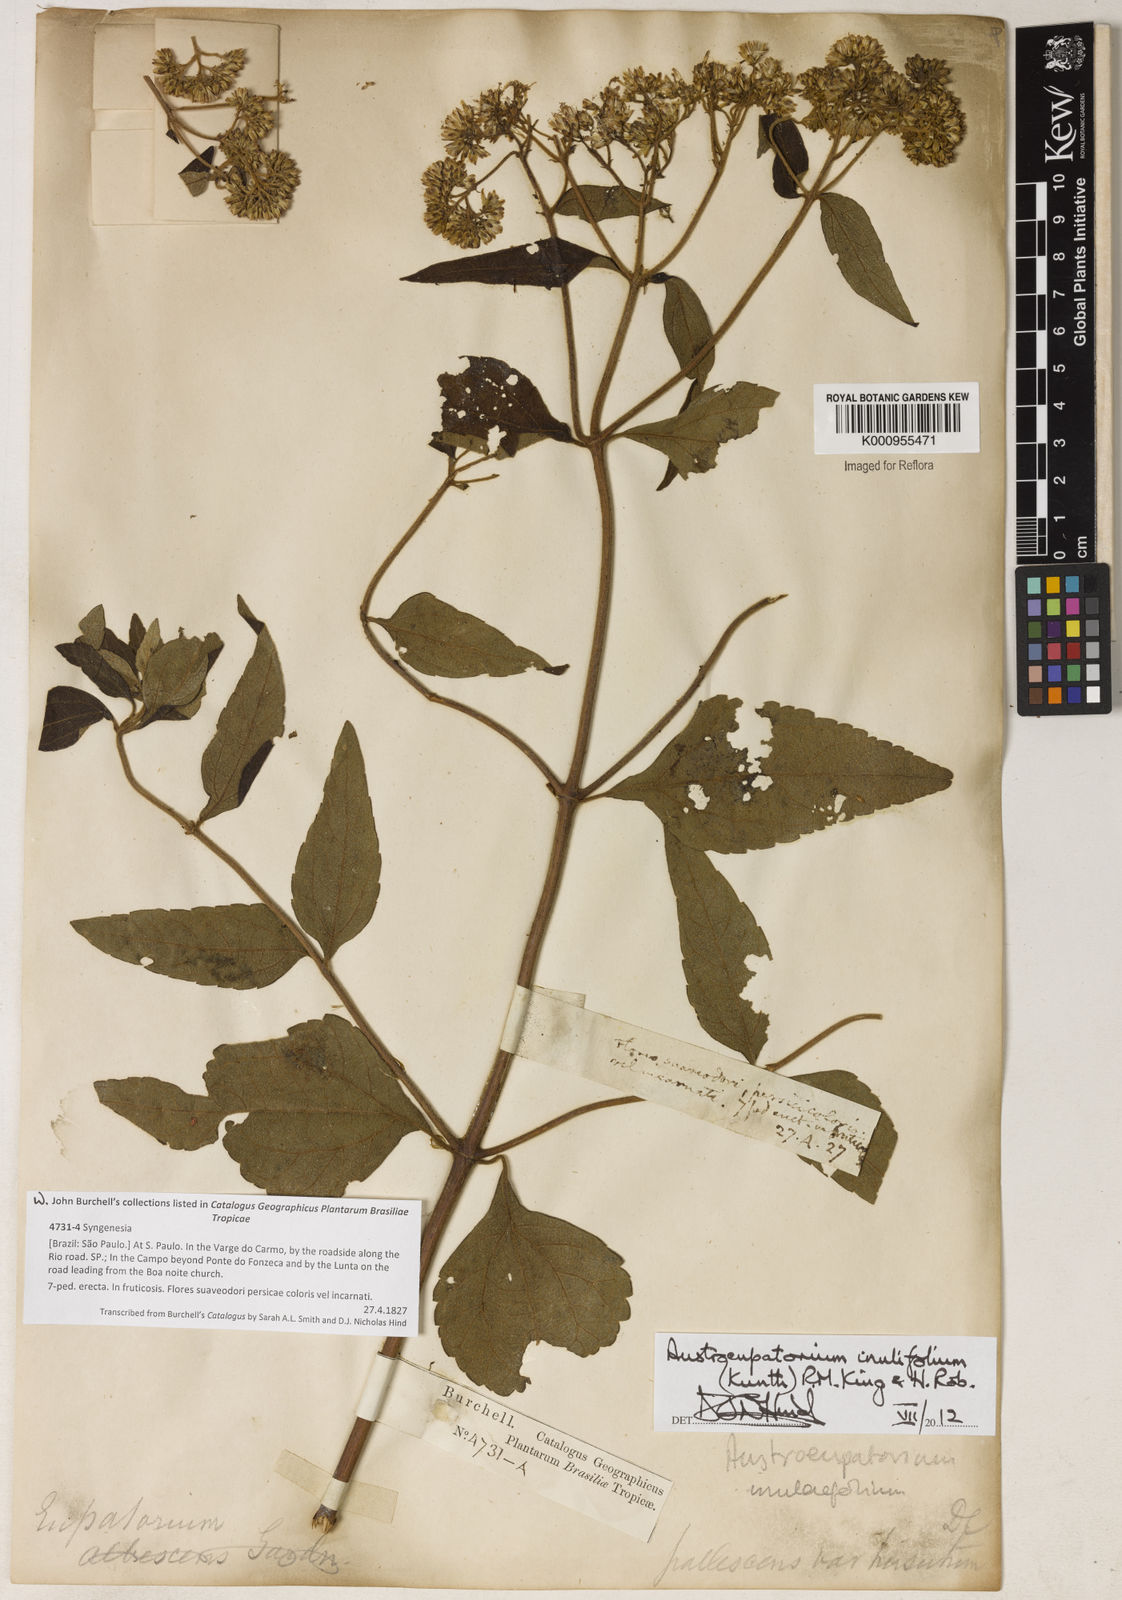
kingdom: Plantae
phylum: Tracheophyta
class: Magnoliopsida
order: Asterales
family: Asteraceae
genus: Austroeupatorium
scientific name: Austroeupatorium inulifolium
